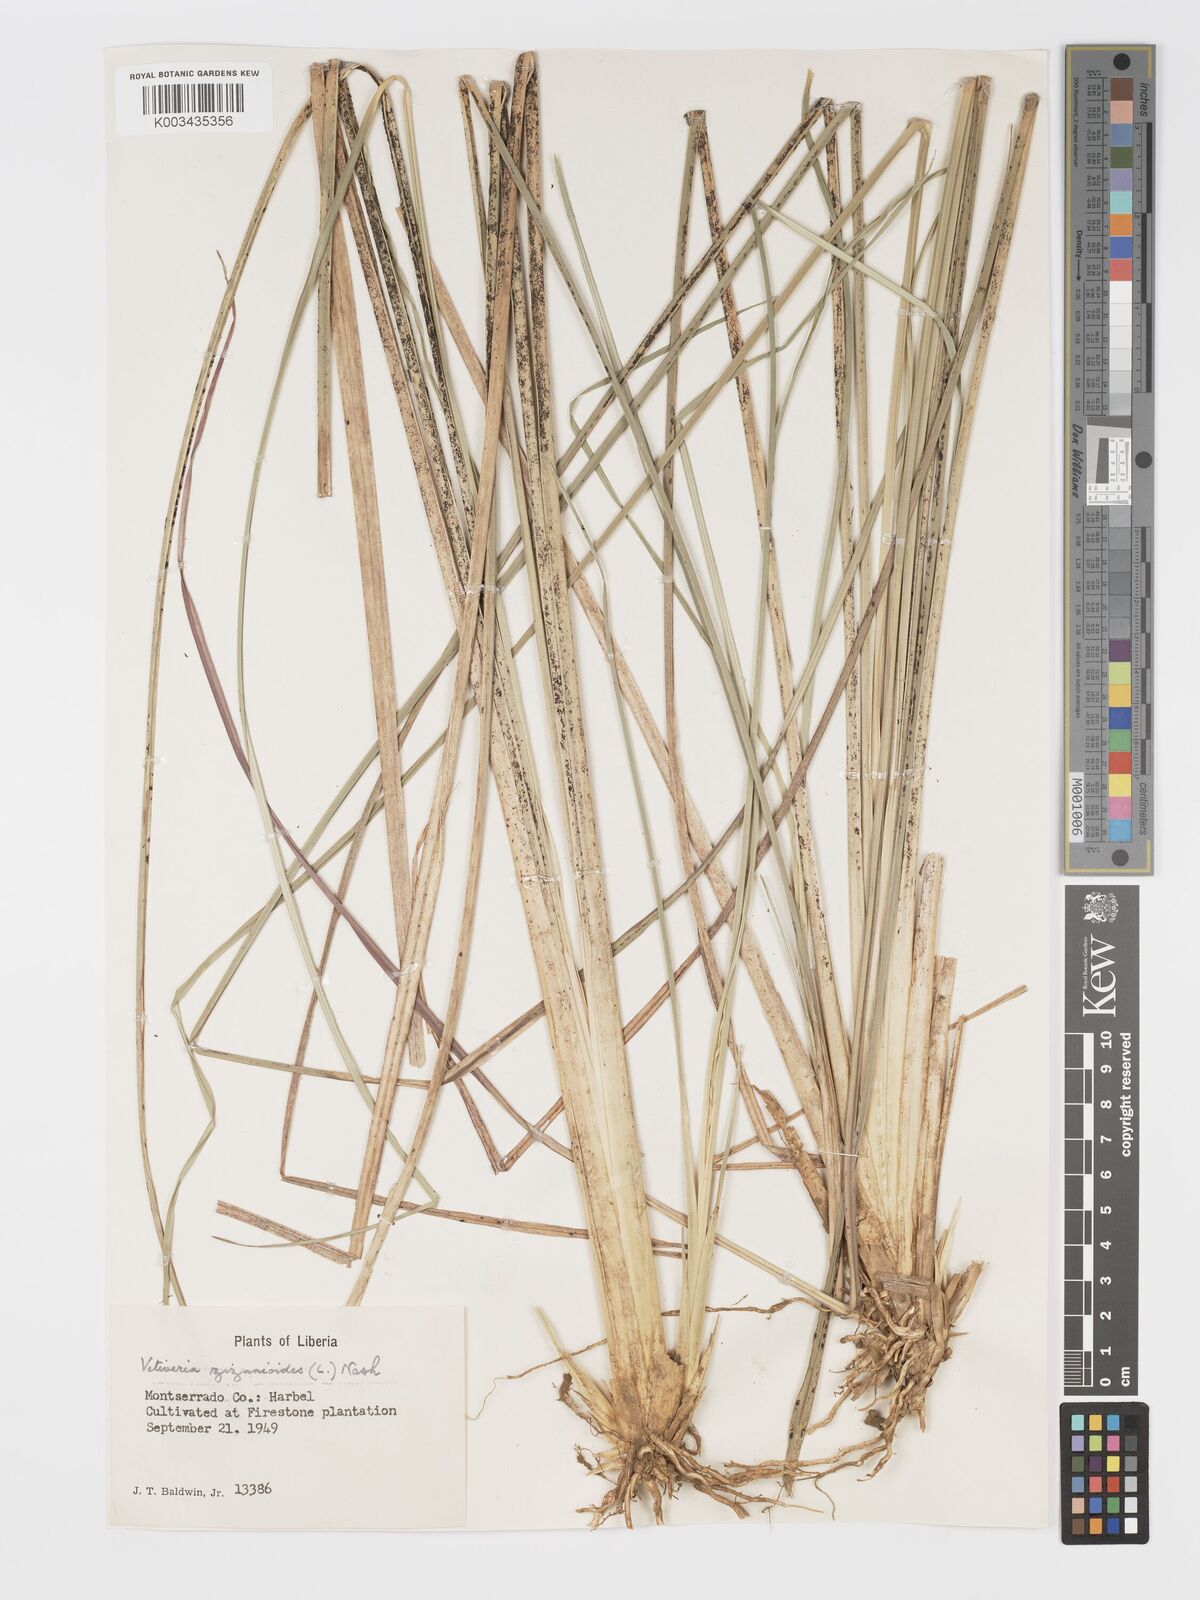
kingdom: Plantae
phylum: Tracheophyta
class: Liliopsida
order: Poales
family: Poaceae
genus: Chrysopogon
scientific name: Chrysopogon zizanioides
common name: False beardgrass
